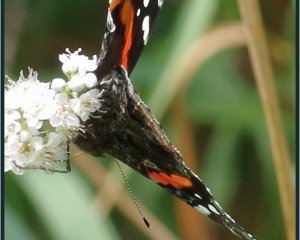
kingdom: Animalia
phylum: Arthropoda
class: Insecta
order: Lepidoptera
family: Nymphalidae
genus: Vanessa
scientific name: Vanessa atalanta
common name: Red Admiral
